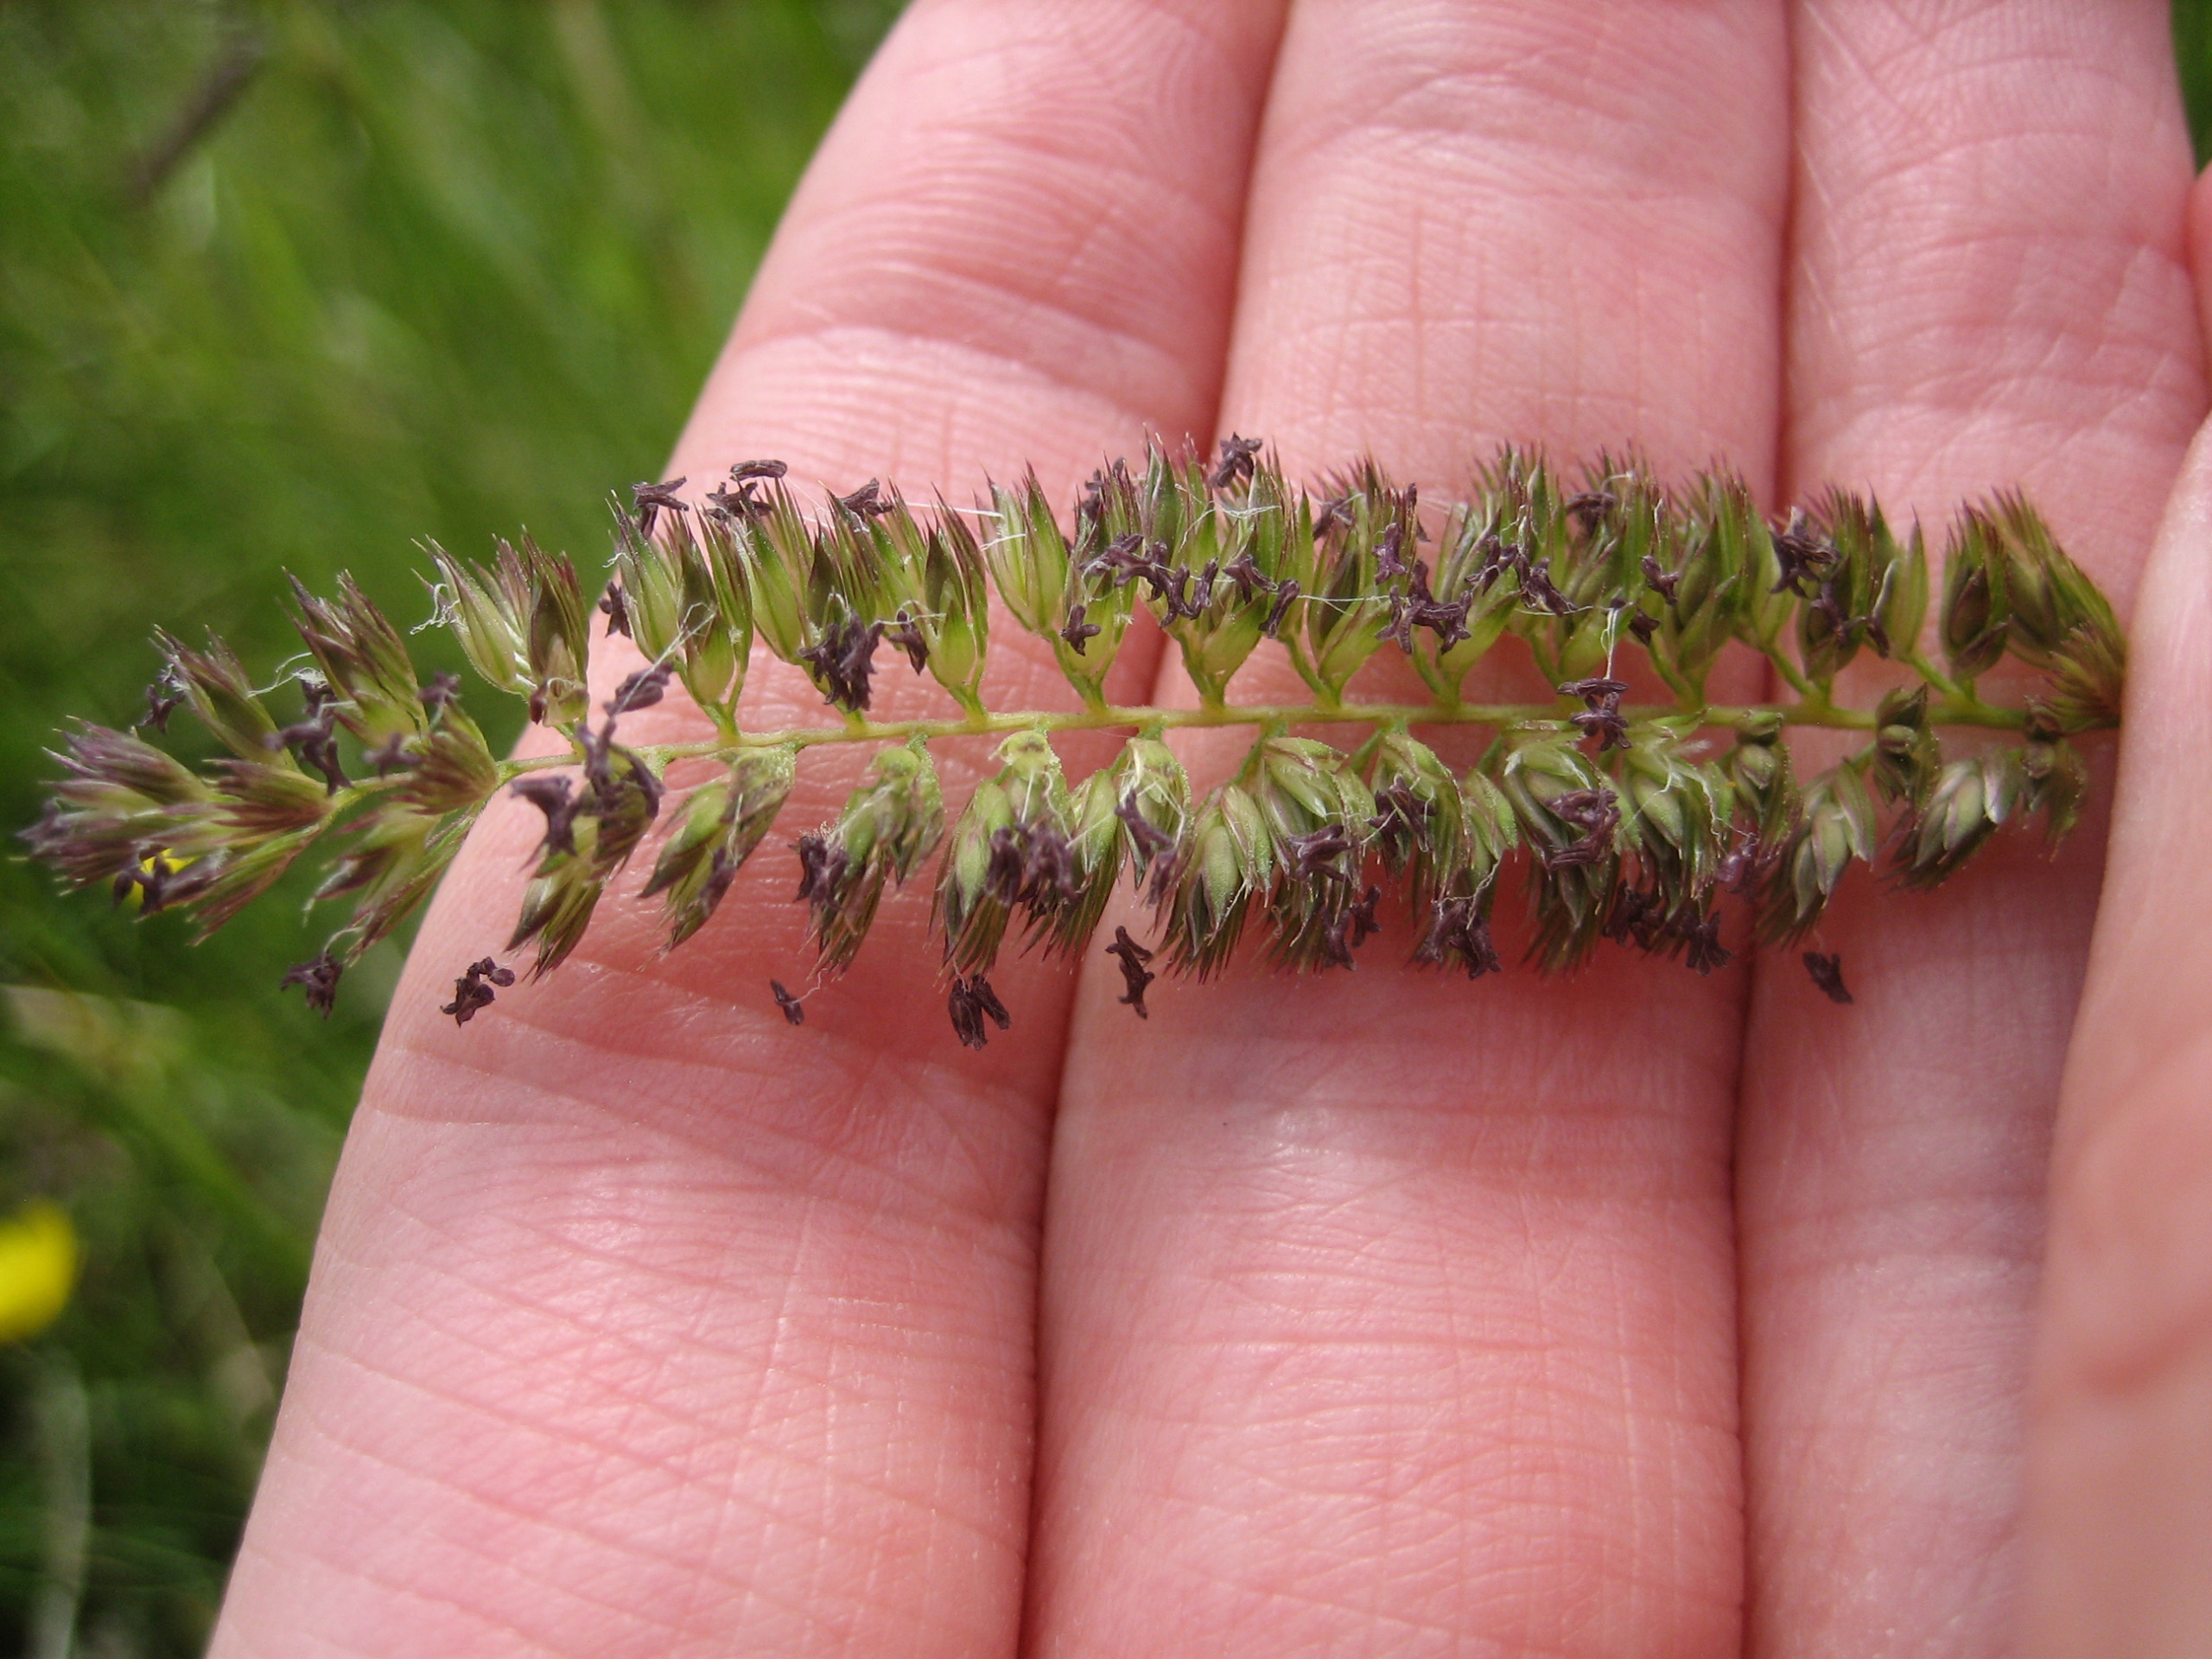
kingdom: Plantae
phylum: Tracheophyta
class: Liliopsida
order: Poales
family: Poaceae
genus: Cynosurus
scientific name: Cynosurus cristatus
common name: Kamgræs
